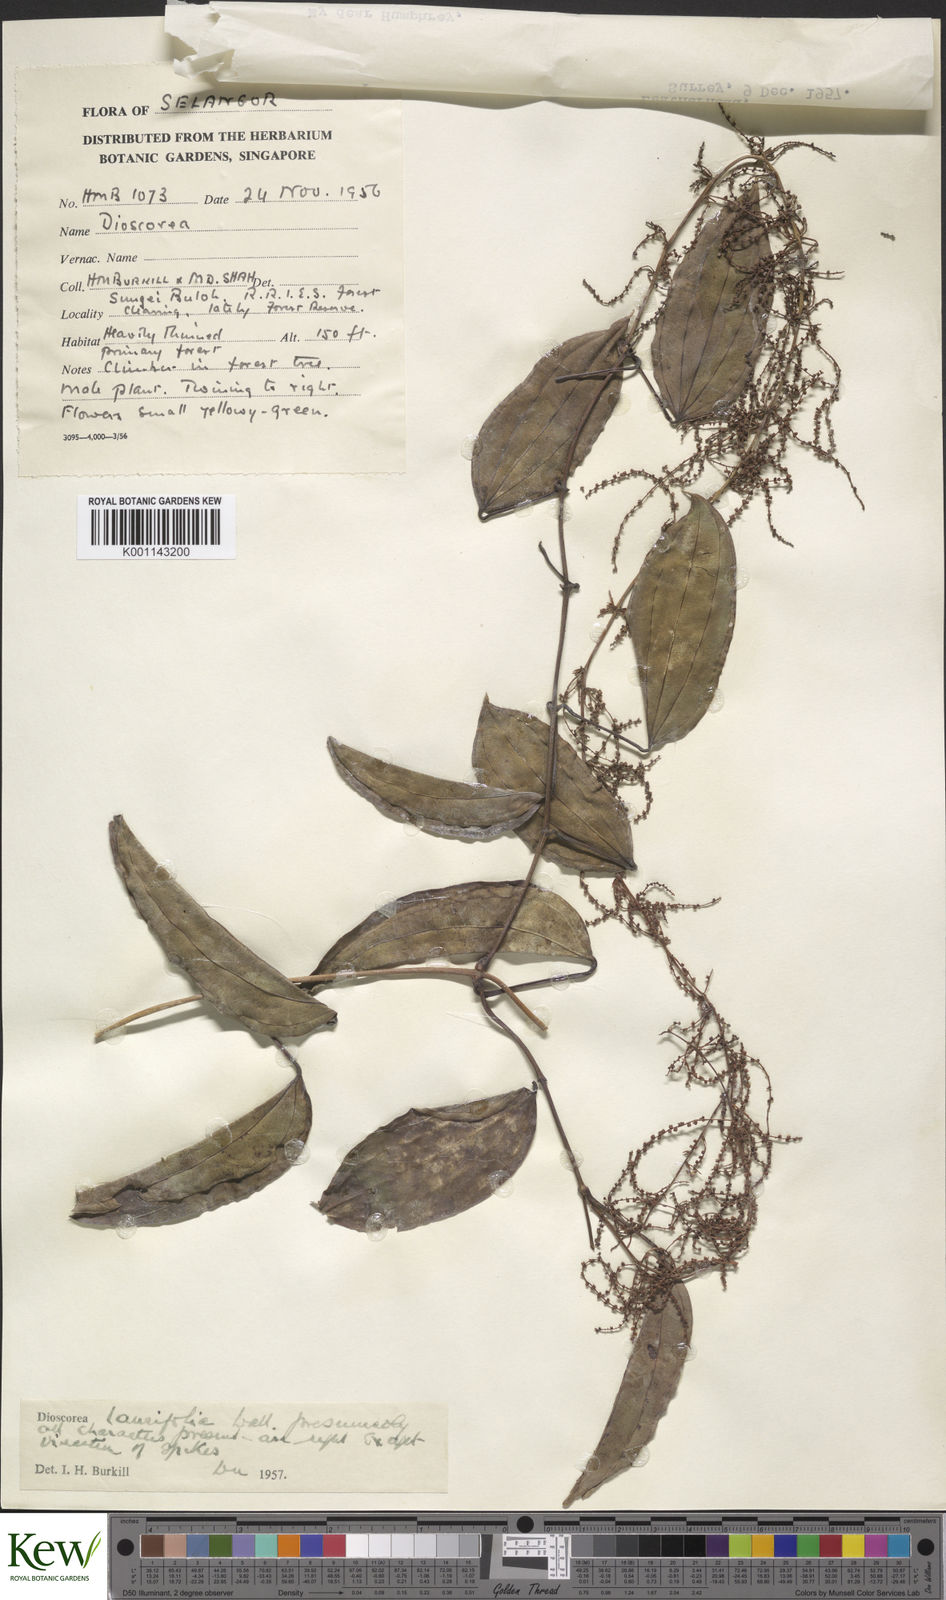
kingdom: Plantae
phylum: Tracheophyta
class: Liliopsida
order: Dioscoreales
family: Dioscoreaceae
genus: Dioscorea
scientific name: Dioscorea laurifolia
